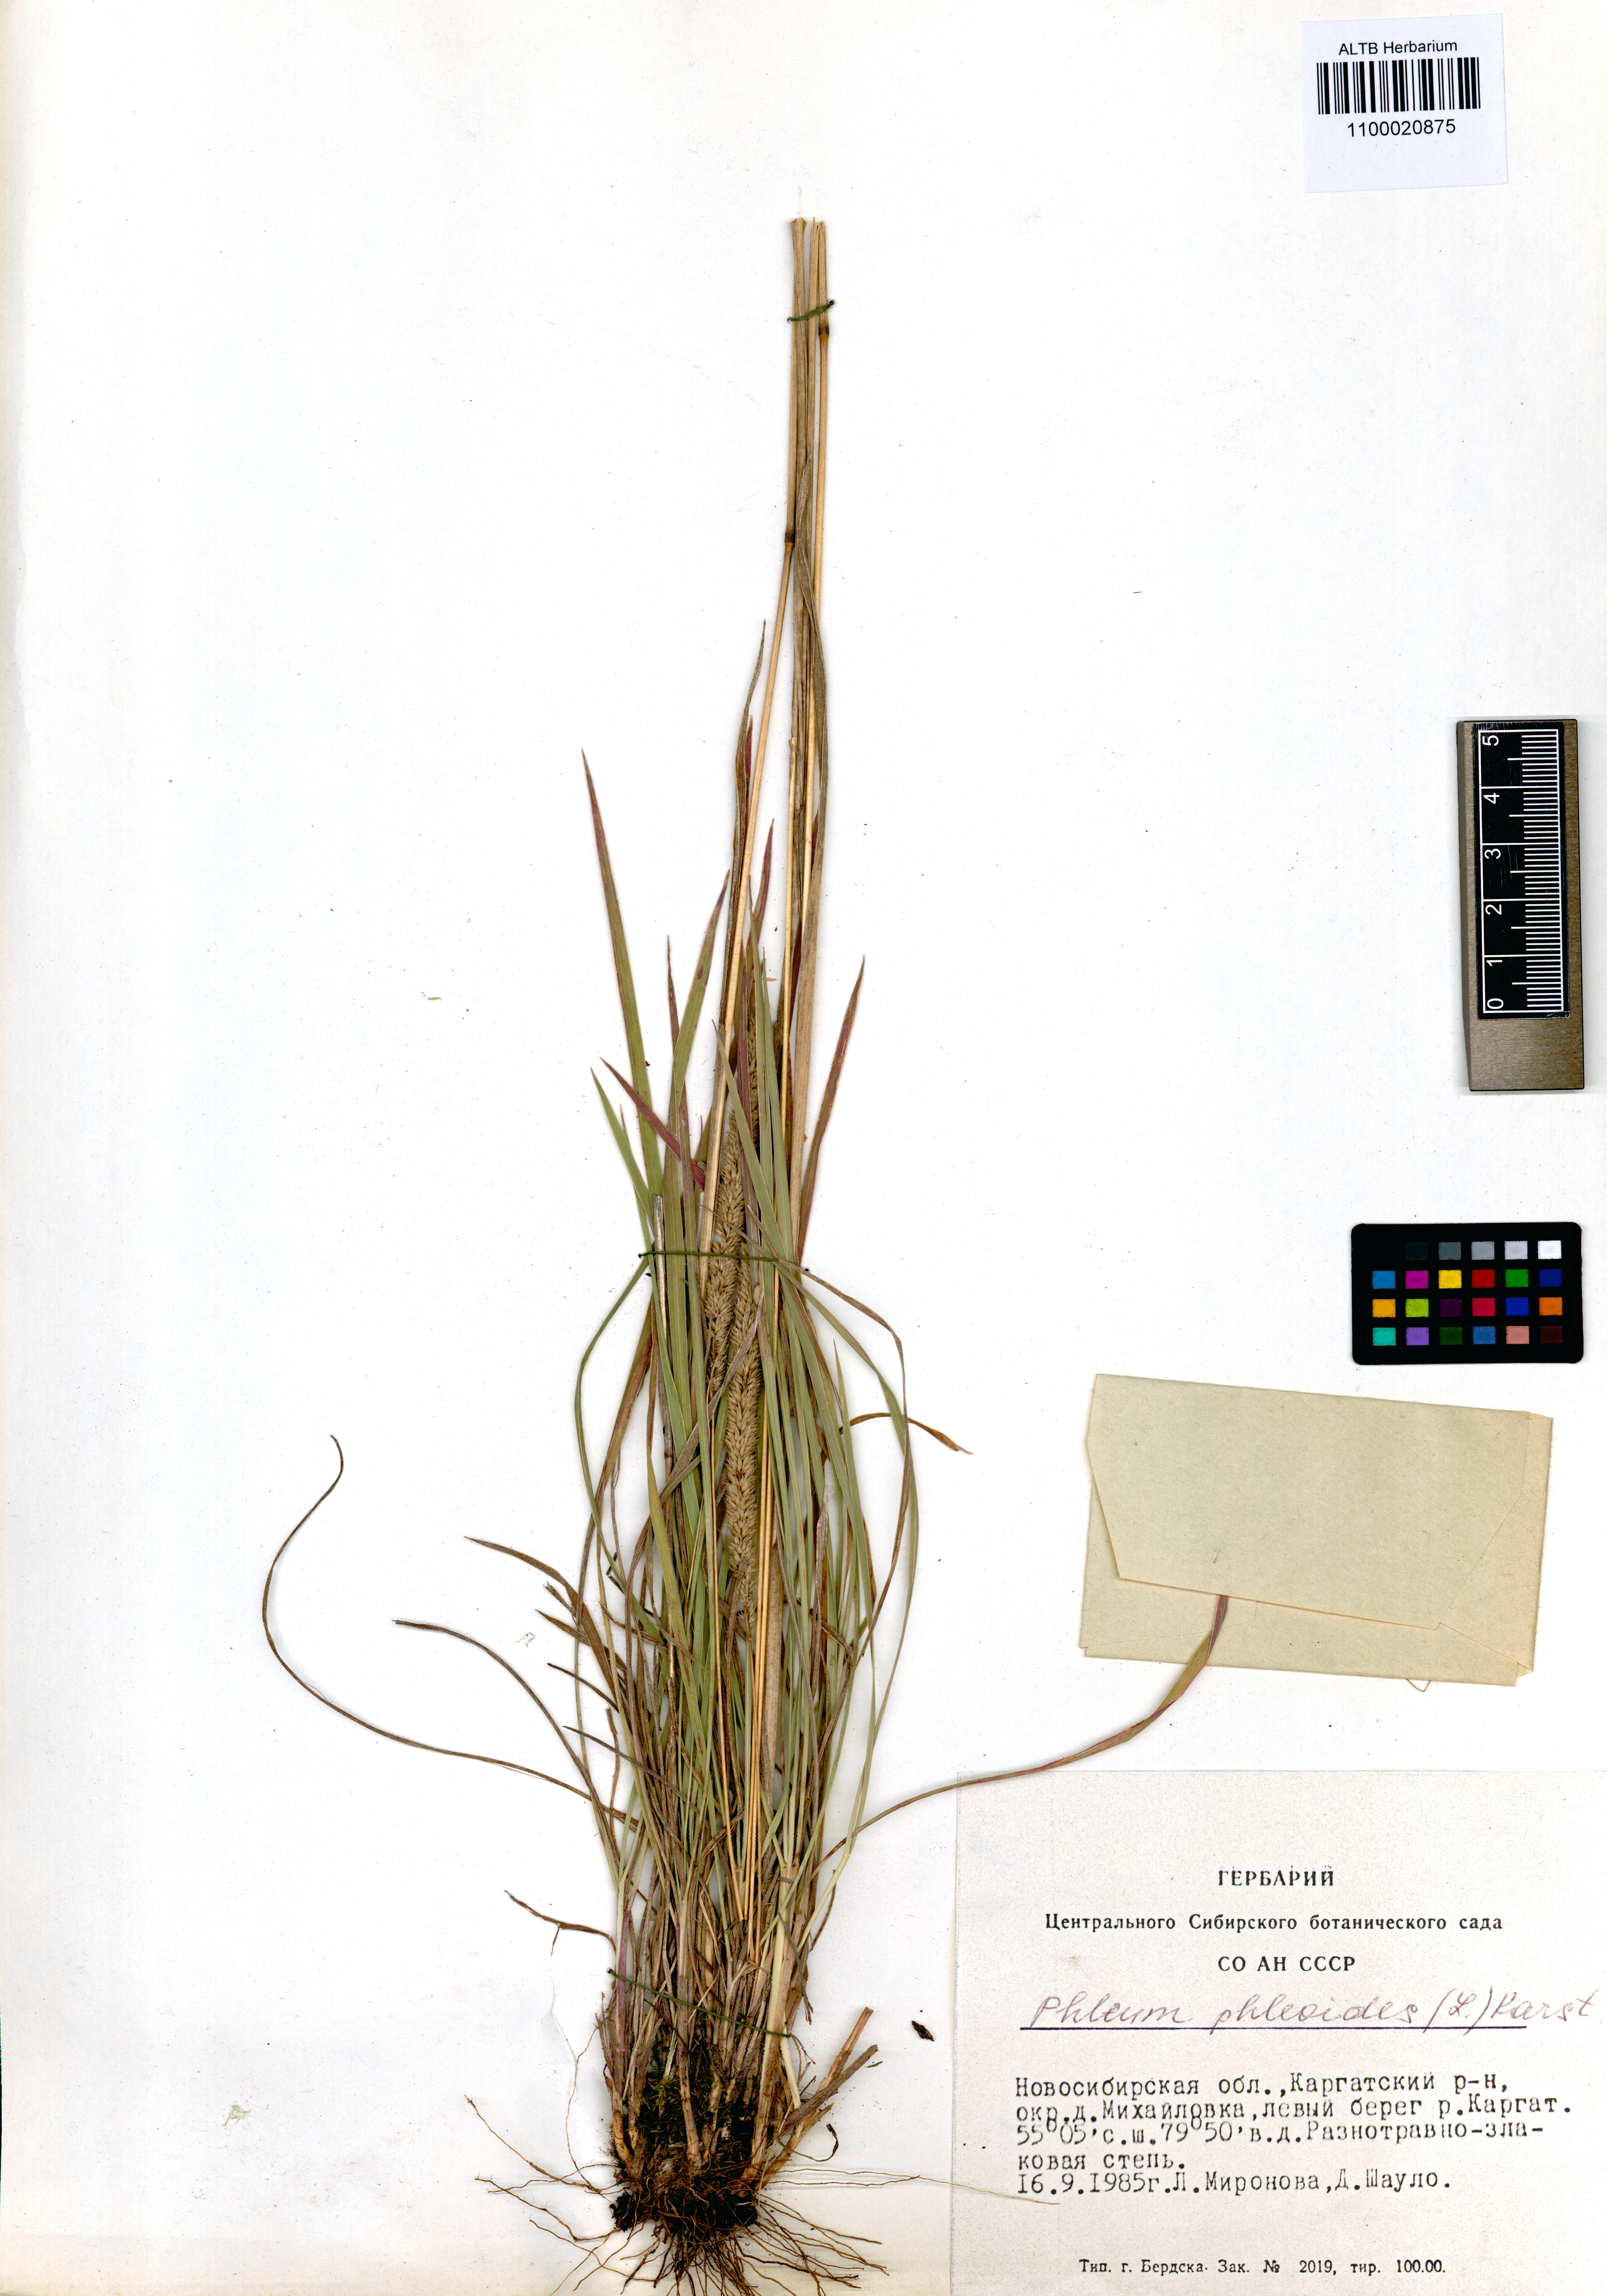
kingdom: Plantae
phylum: Tracheophyta
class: Liliopsida
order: Poales
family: Poaceae
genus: Phleum
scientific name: Phleum phleoides
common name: Purple-stem cat's-tail
